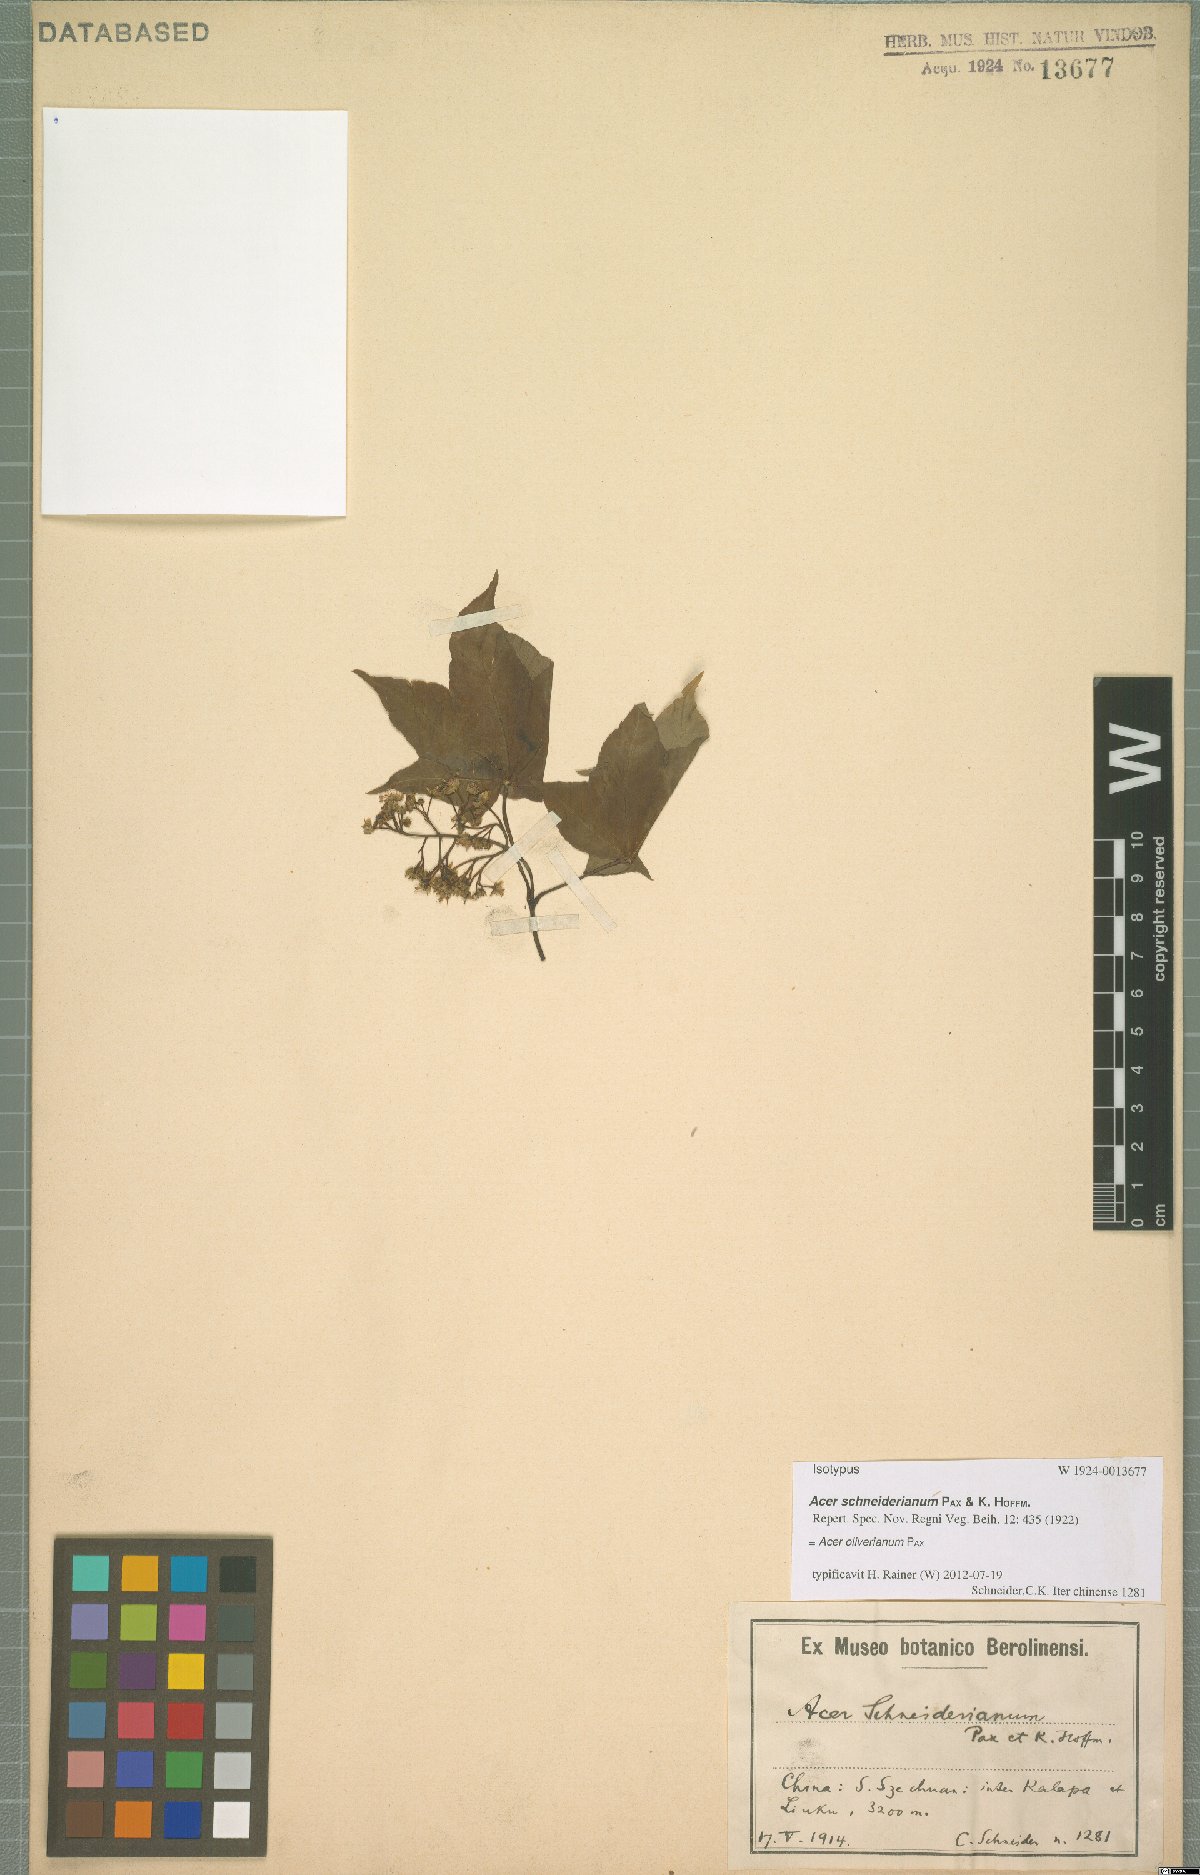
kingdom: Plantae
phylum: Tracheophyta
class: Magnoliopsida
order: Sapindales
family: Sapindaceae
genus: Acer
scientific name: Acer oliverianum
